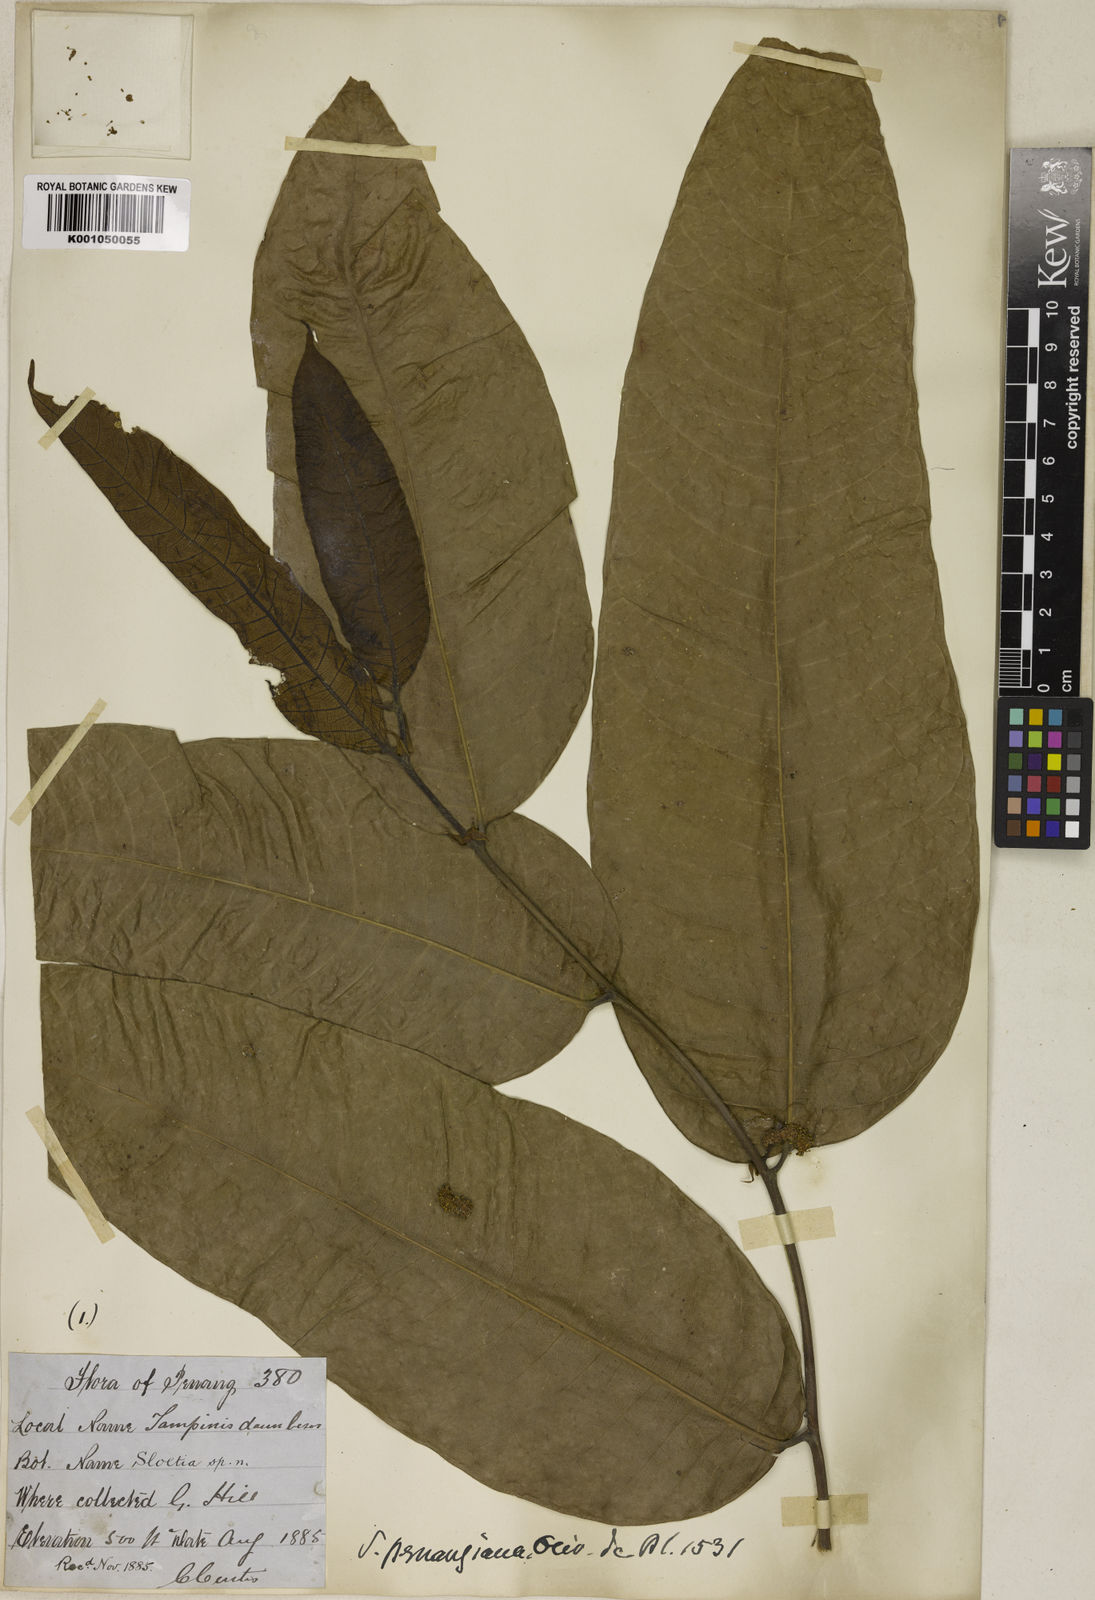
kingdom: Plantae
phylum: Tracheophyta
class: Magnoliopsida
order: Rosales
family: Moraceae
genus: Sloetia
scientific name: Sloetia elongata
